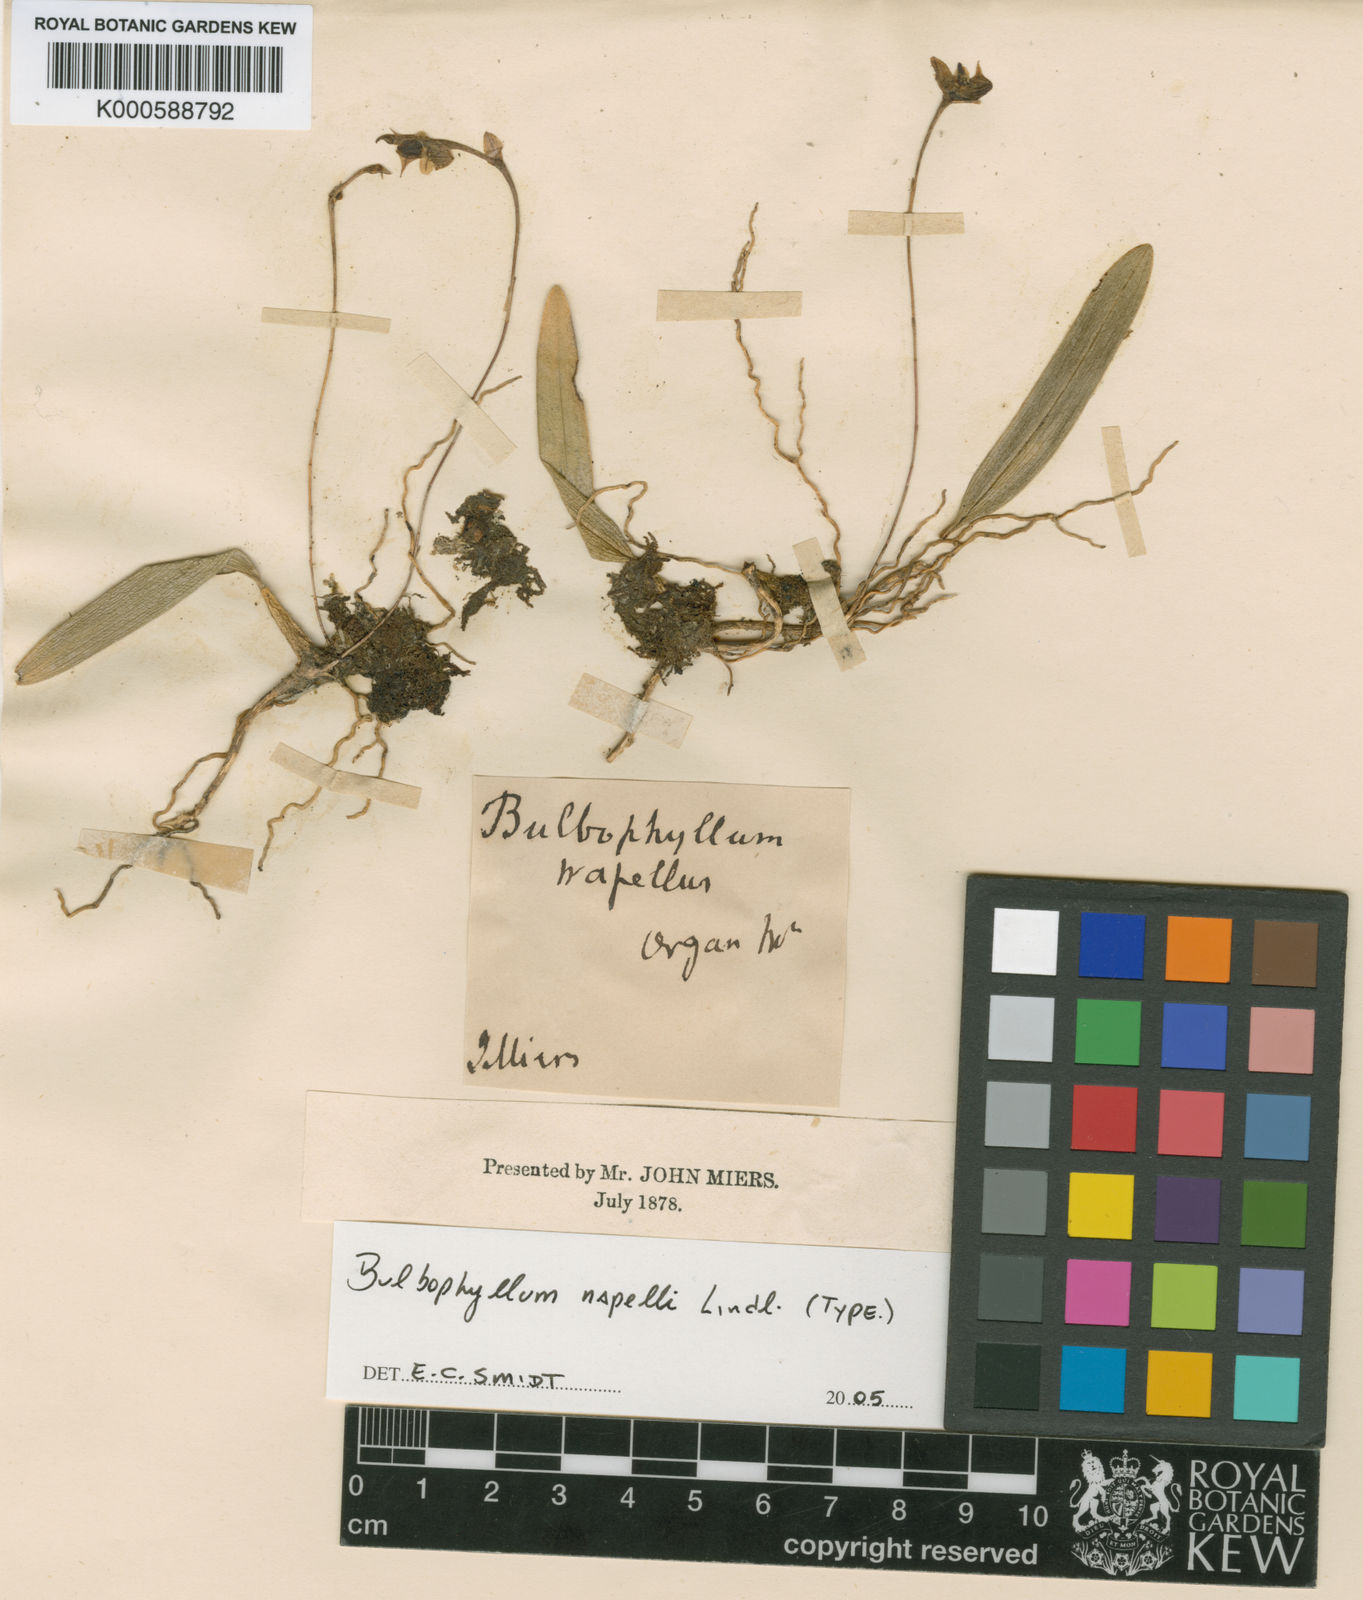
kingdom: Plantae
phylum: Tracheophyta
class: Liliopsida
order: Asparagales
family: Orchidaceae
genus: Bulbophyllum
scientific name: Bulbophyllum napellii
